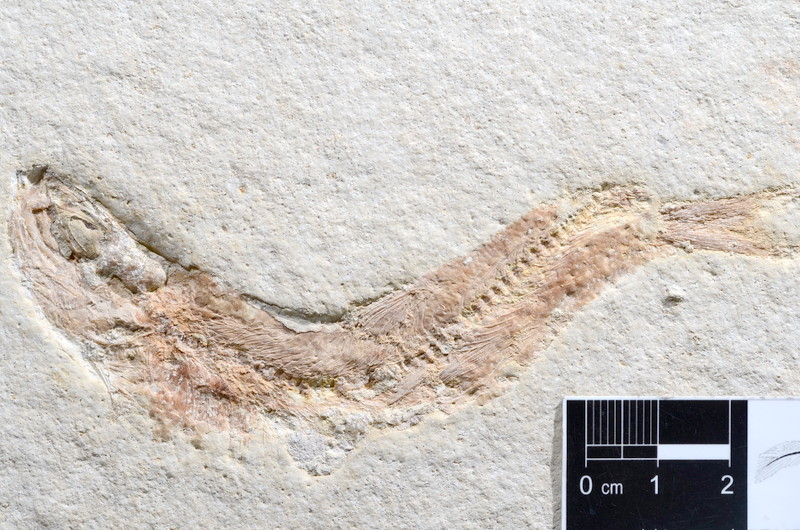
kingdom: Animalia
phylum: Chordata
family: Ascalaboidae
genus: Tharsis
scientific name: Tharsis dubius
